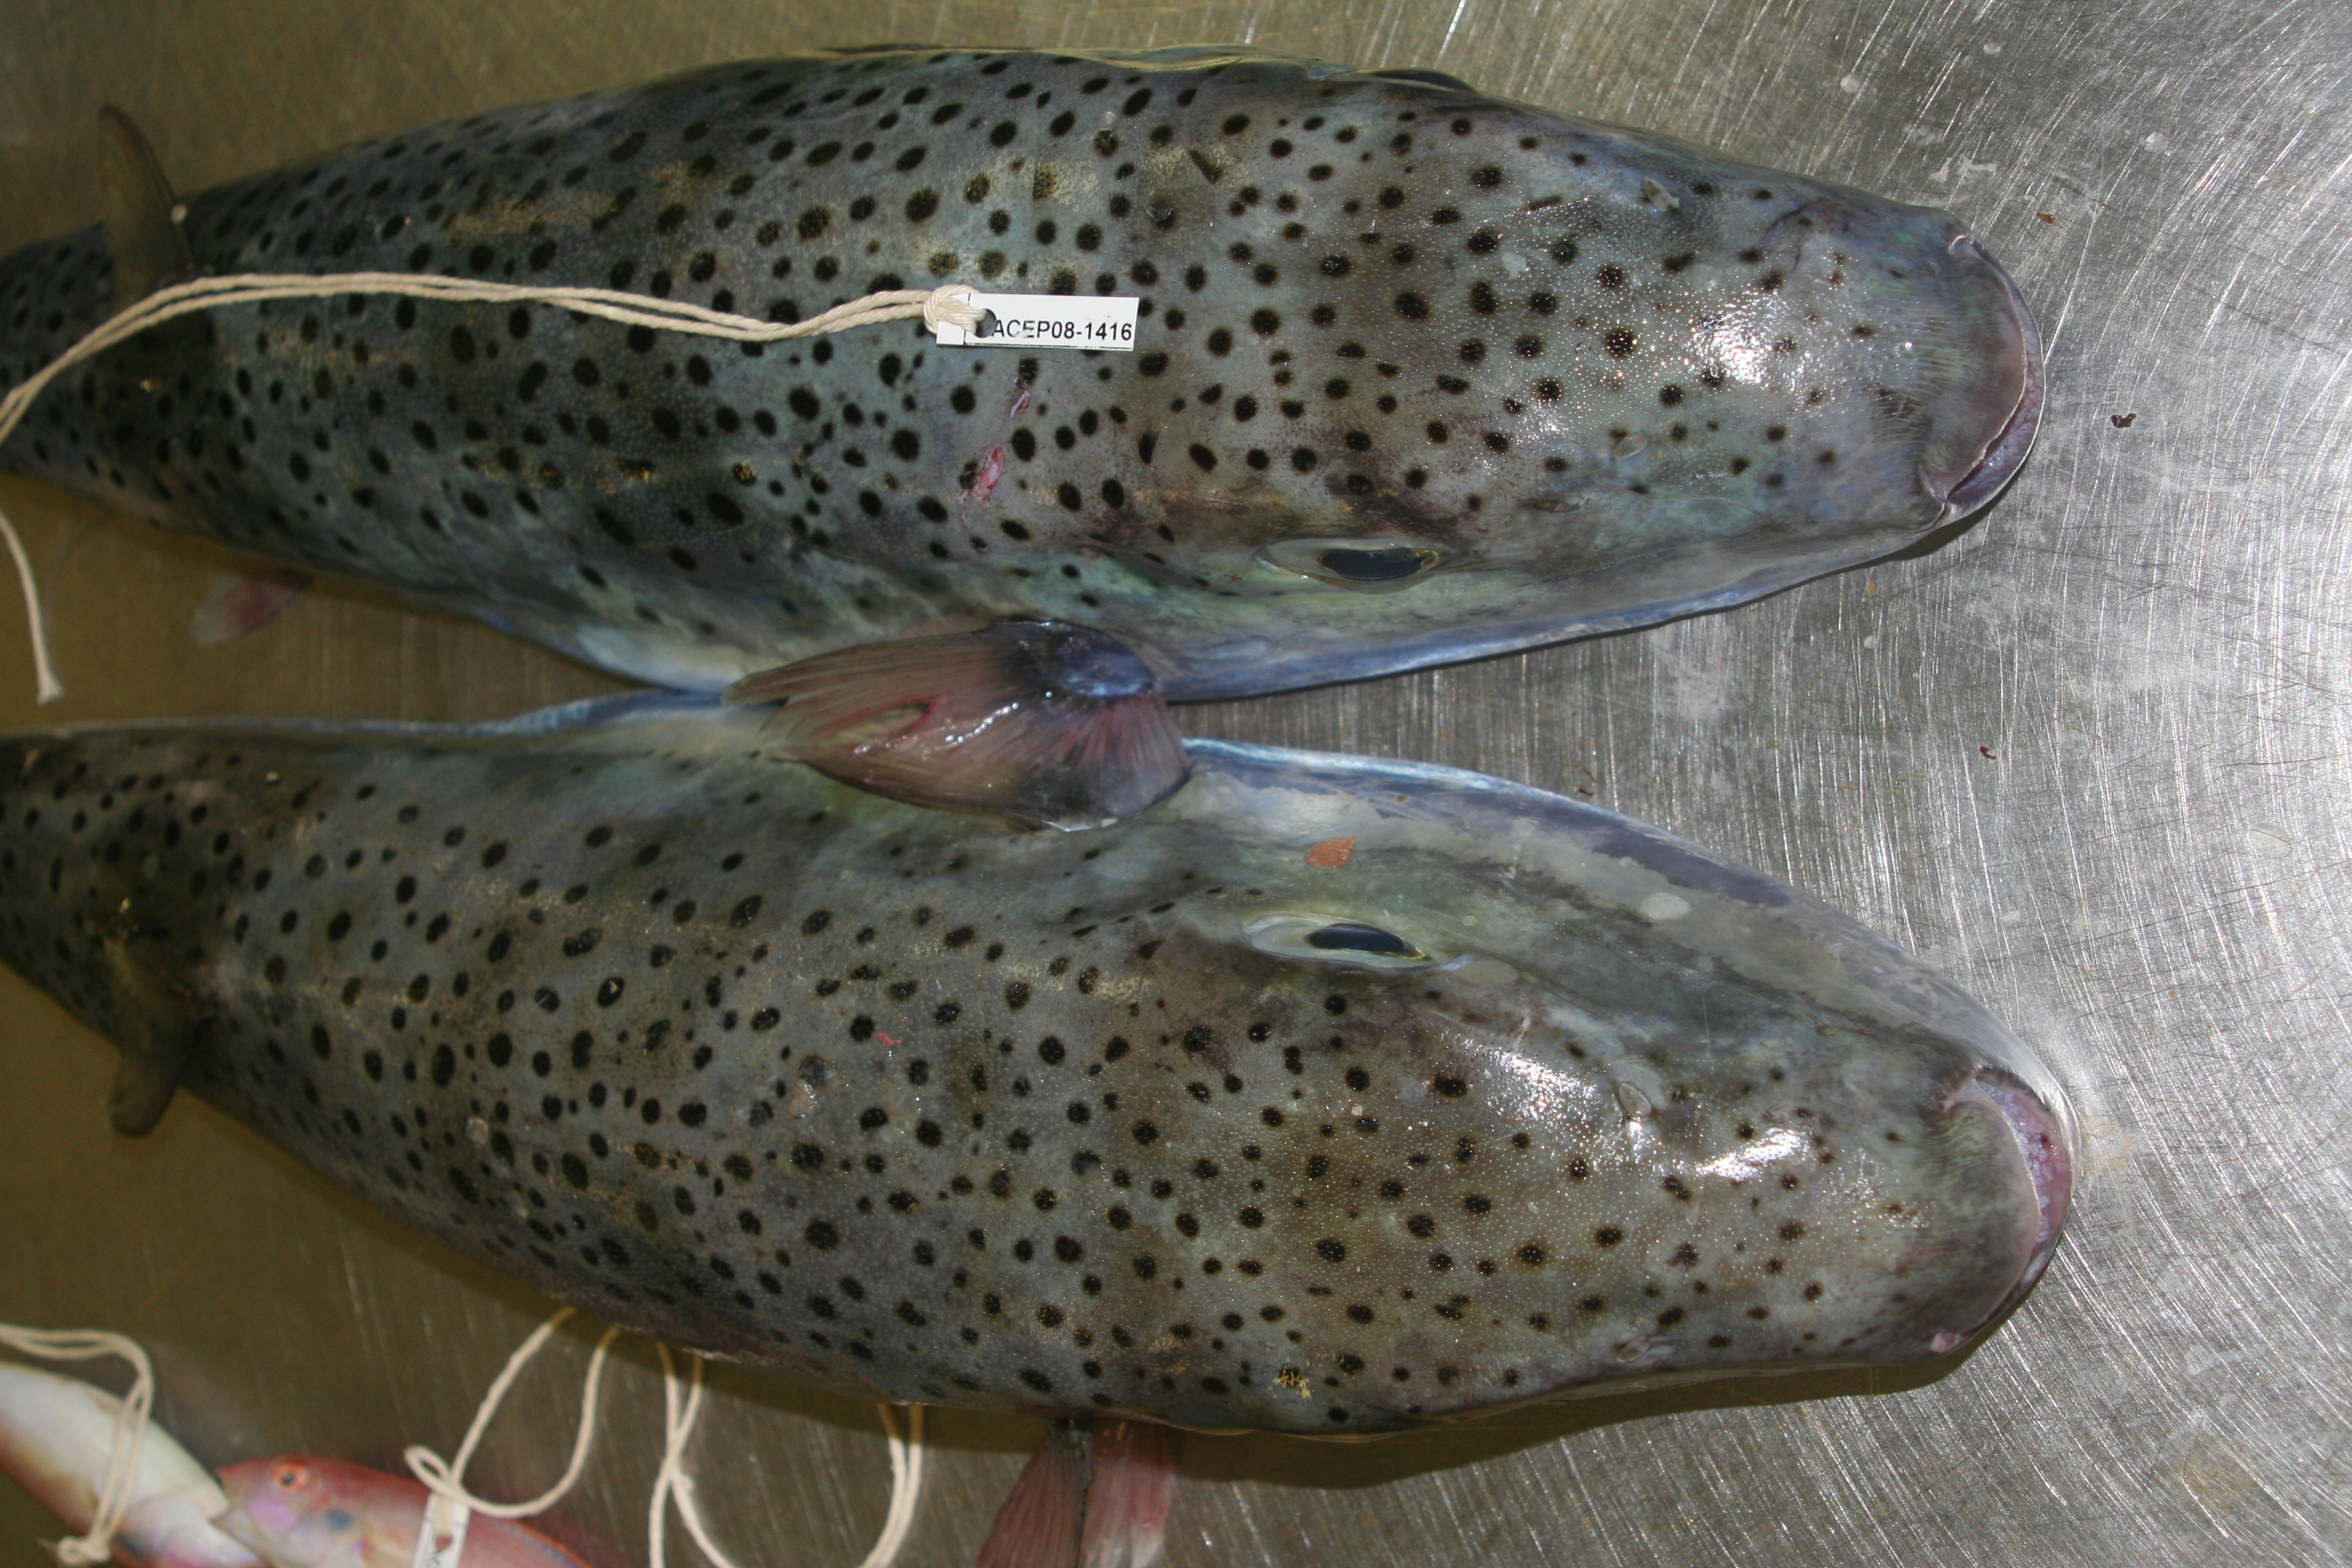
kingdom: Animalia
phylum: Chordata
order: Tetraodontiformes
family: Tetraodontidae
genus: Lagocephalus
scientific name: Lagocephalus sceleratus
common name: Silverstripe blaasop
